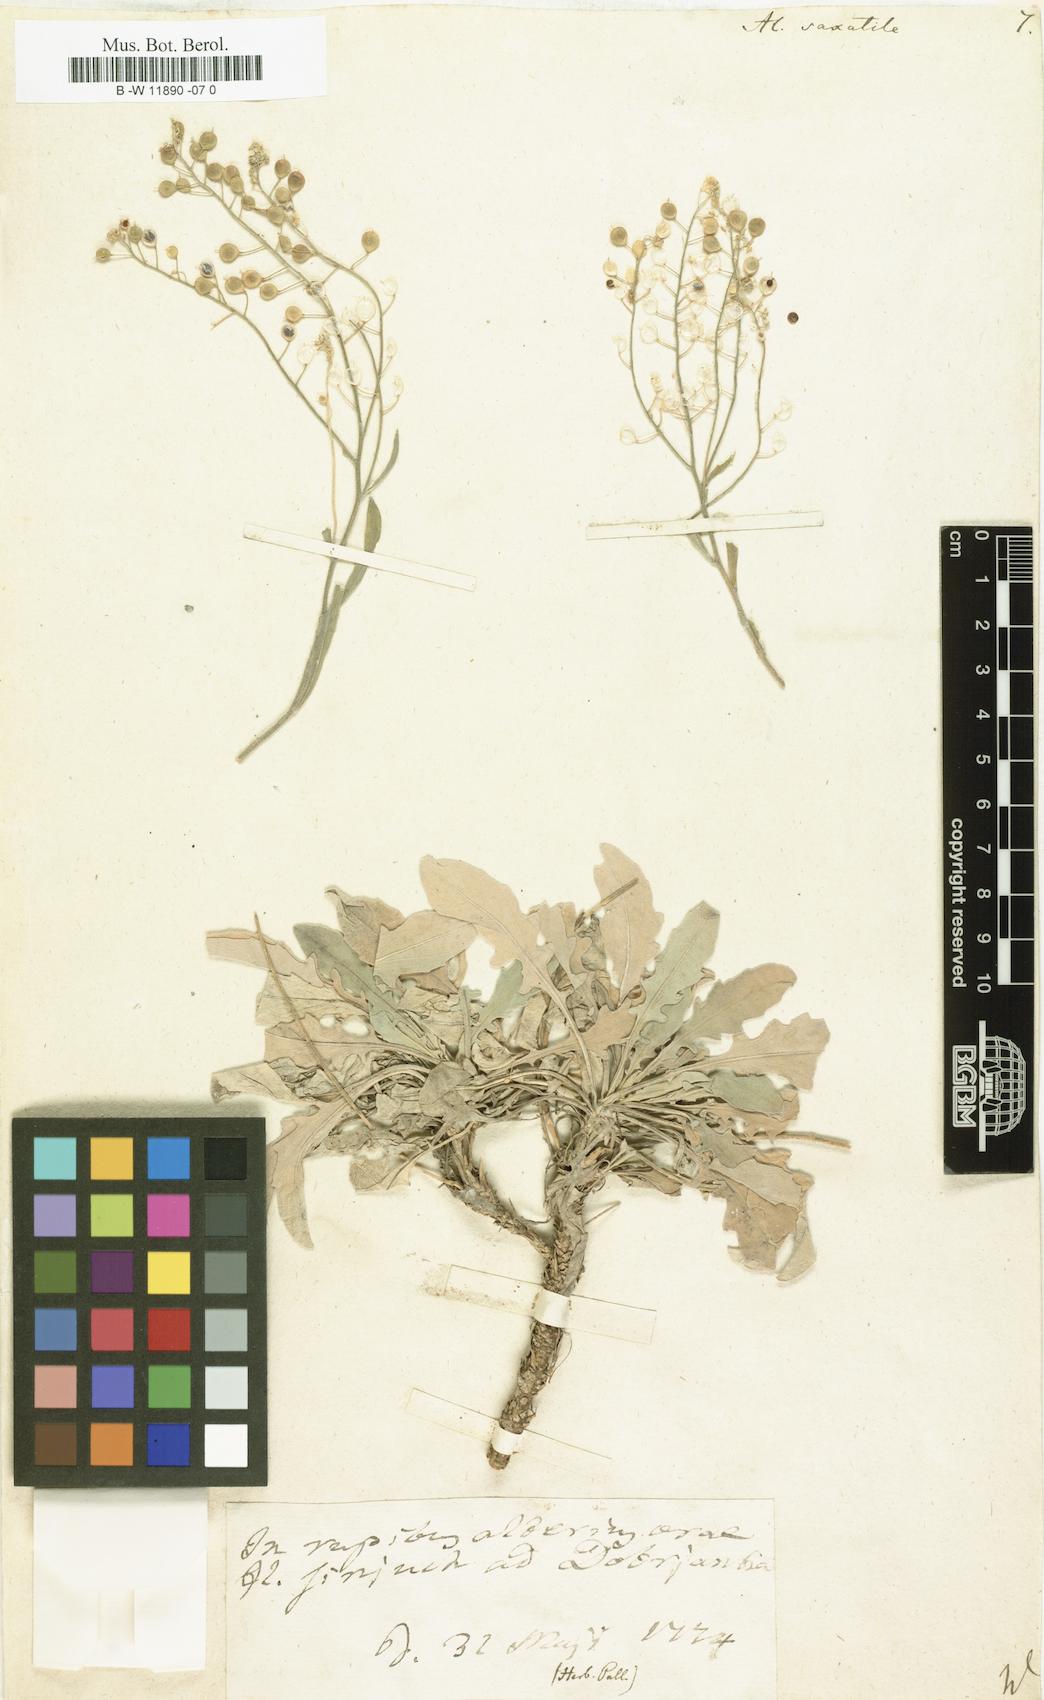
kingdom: Plantae
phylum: Tracheophyta
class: Magnoliopsida
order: Brassicales
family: Brassicaceae
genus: Aurinia
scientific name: Aurinia saxatilis
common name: Golden-tuft alyssum
